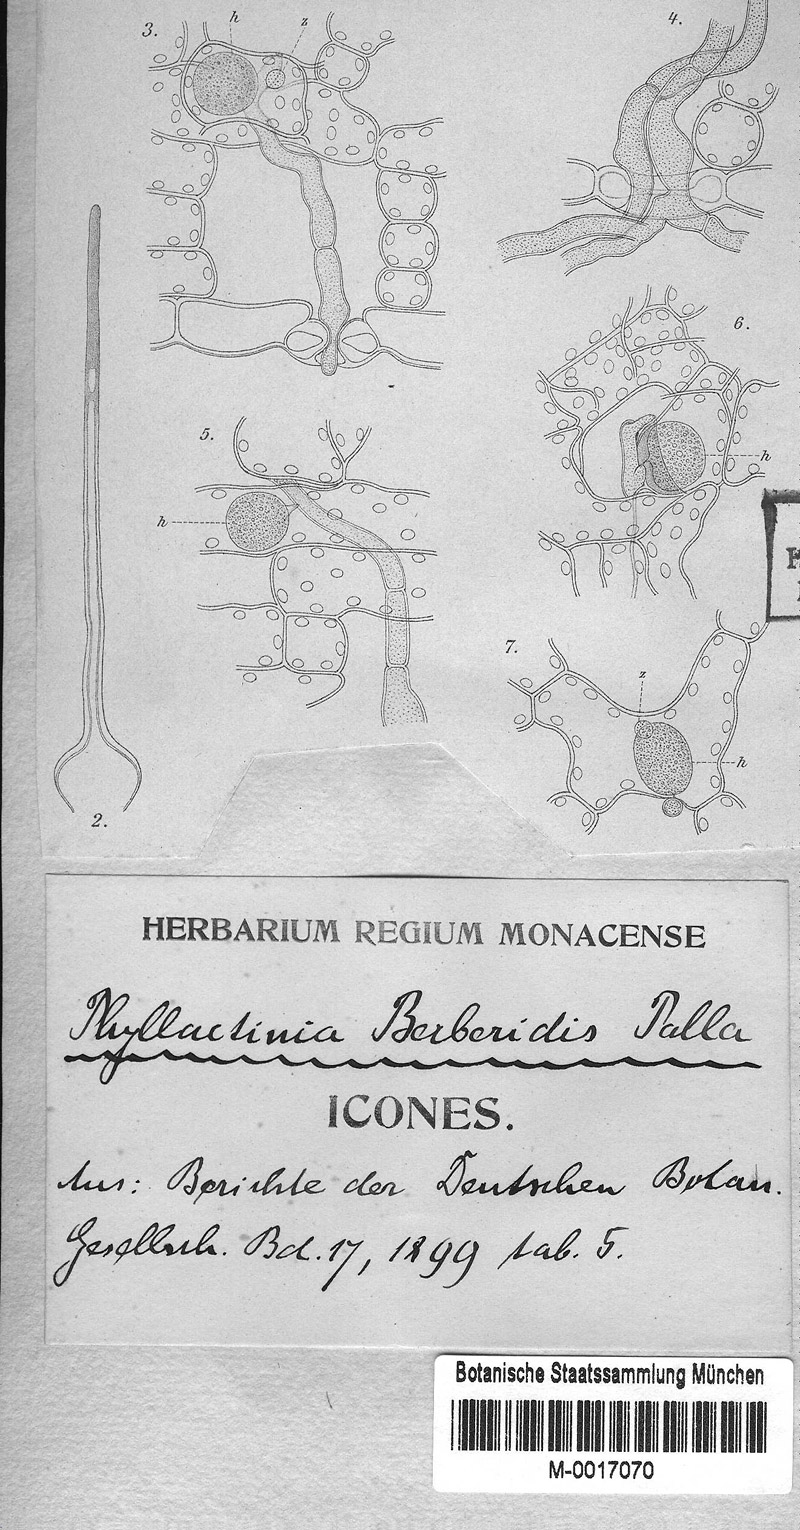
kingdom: Fungi
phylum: Ascomycota
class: Leotiomycetes
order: Helotiales
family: Erysiphaceae
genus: Phyllactinia
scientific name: Phyllactinia guttata
